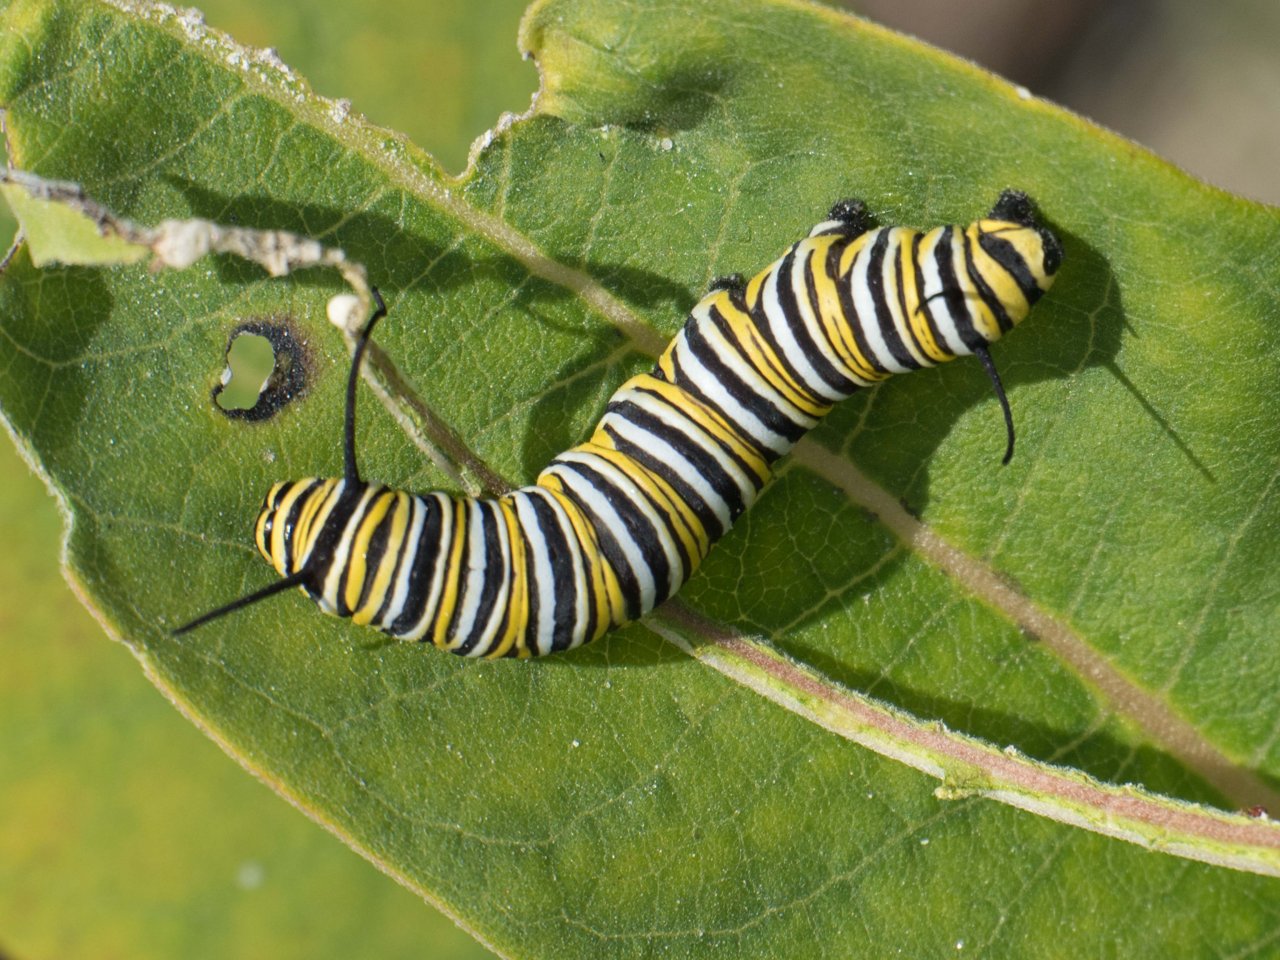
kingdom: Animalia
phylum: Arthropoda
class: Insecta
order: Lepidoptera
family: Nymphalidae
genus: Danaus
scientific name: Danaus plexippus
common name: Monarch
